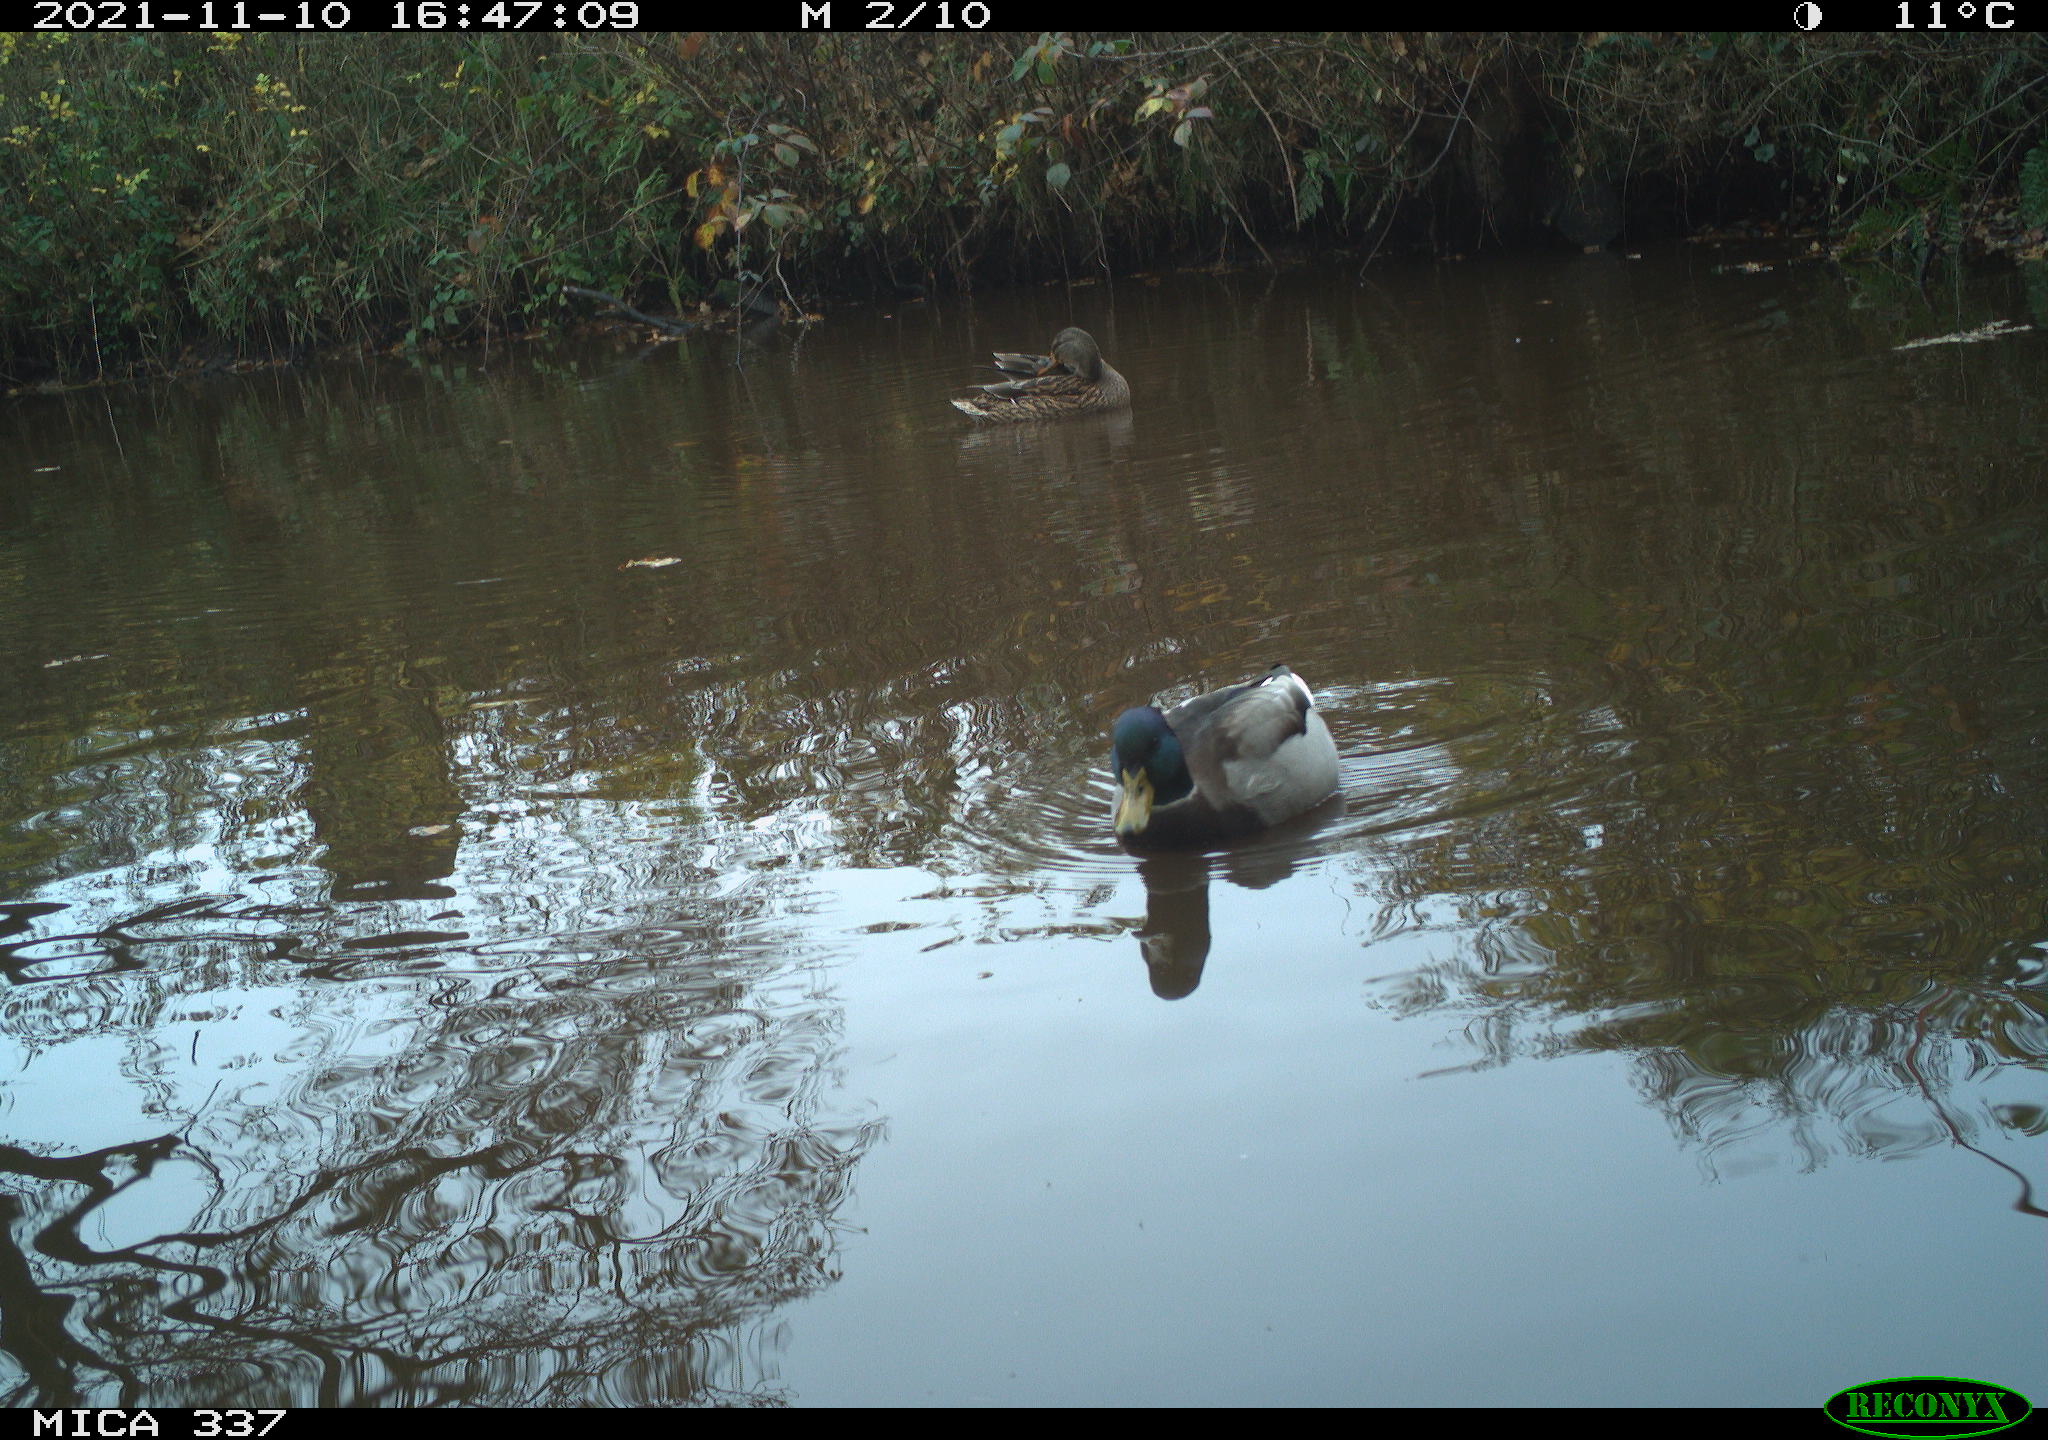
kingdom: Animalia
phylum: Chordata
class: Aves
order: Anseriformes
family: Anatidae
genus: Anas
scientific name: Anas platyrhynchos
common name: Mallard
